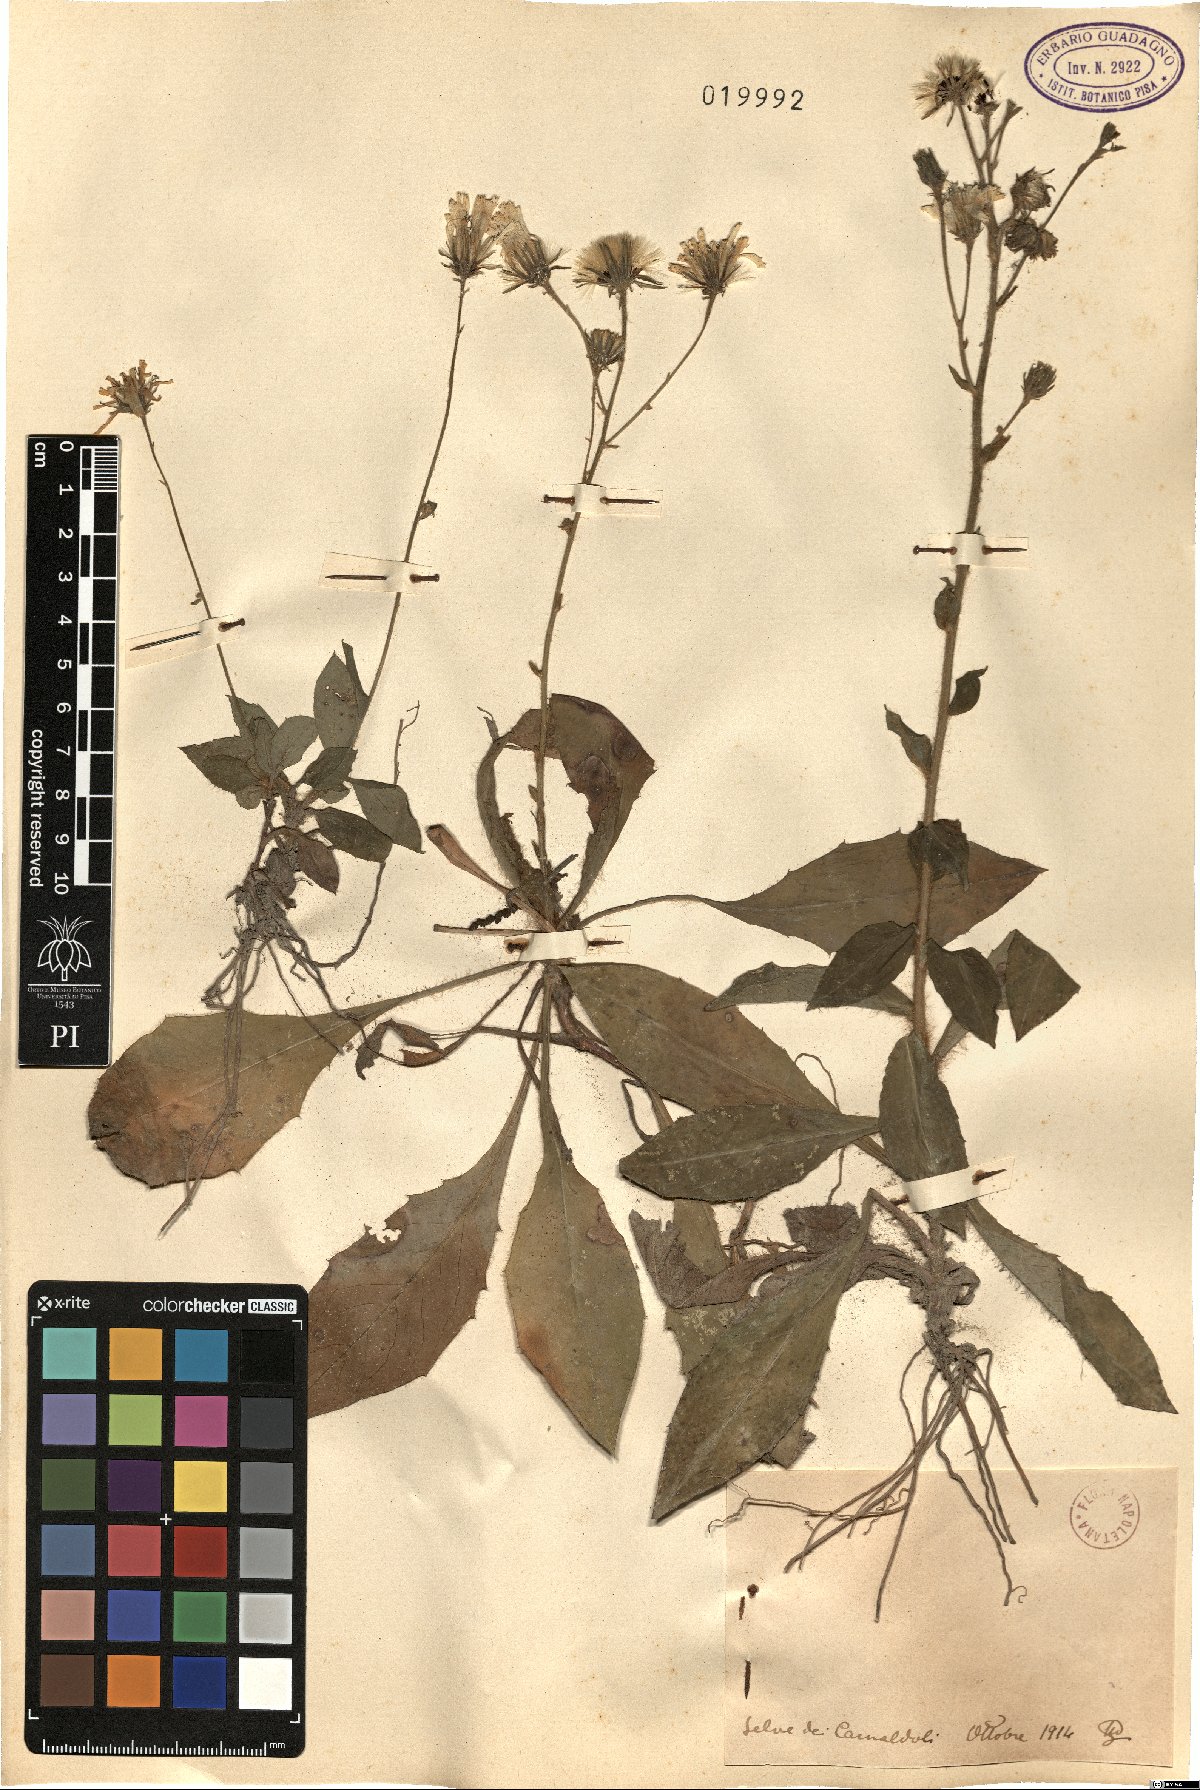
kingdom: Plantae
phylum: Tracheophyta
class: Magnoliopsida
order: Asterales
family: Asteraceae
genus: Hieracium
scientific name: Hieracium
